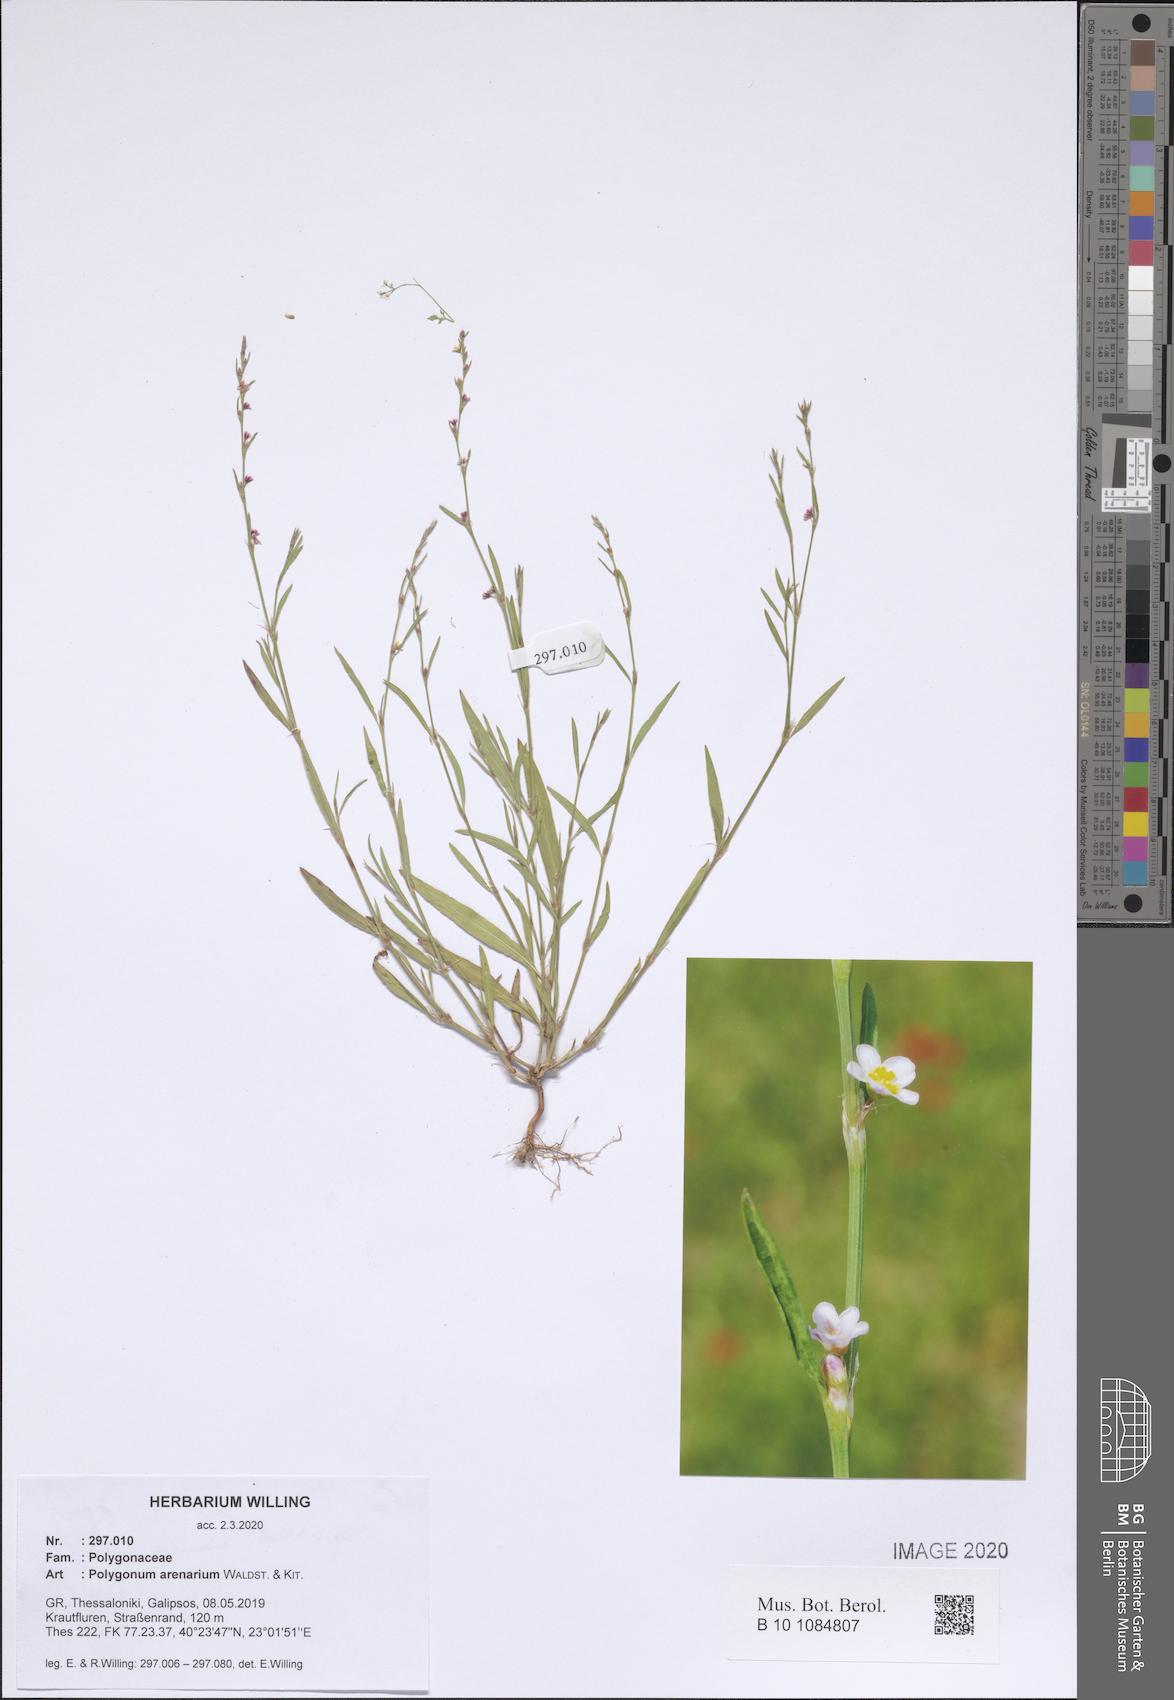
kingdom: Plantae
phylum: Tracheophyta
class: Magnoliopsida
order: Caryophyllales
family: Polygonaceae
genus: Polygonum
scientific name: Polygonum arenarium
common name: Lesser red-knotgrass
